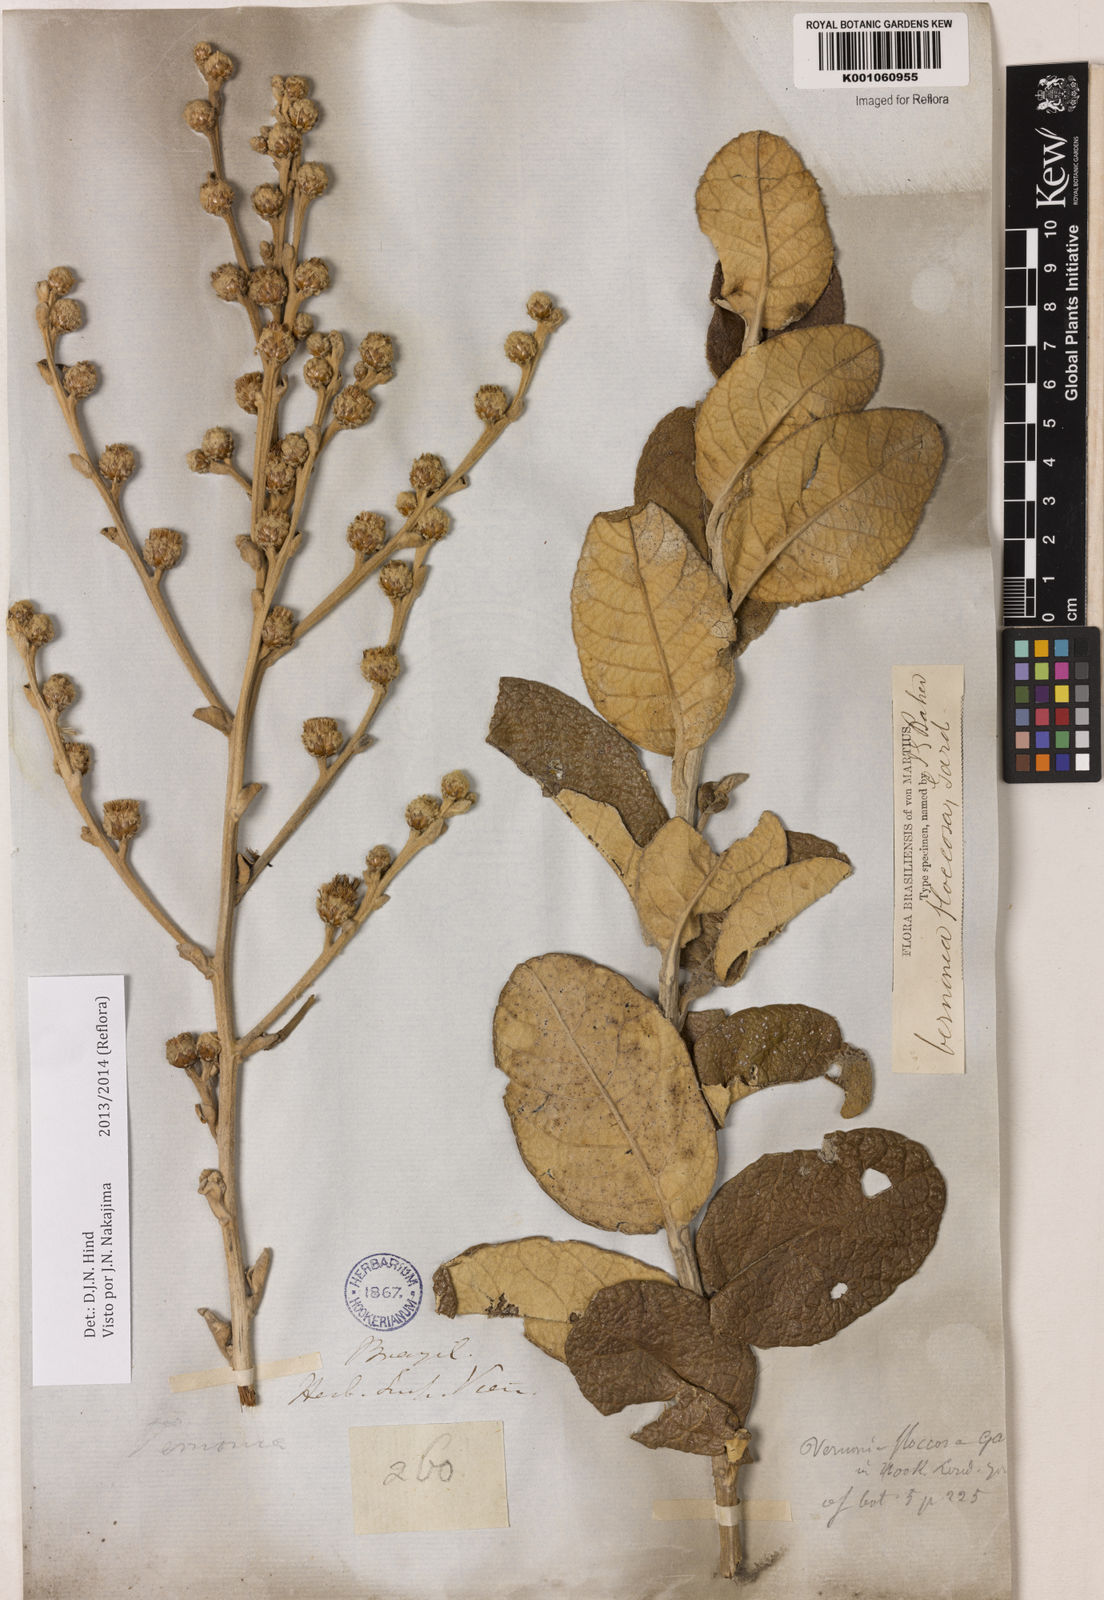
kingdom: Plantae
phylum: Tracheophyta
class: Magnoliopsida
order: Asterales
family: Asteraceae
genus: Lessingianthus
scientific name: Lessingianthus floccosus
